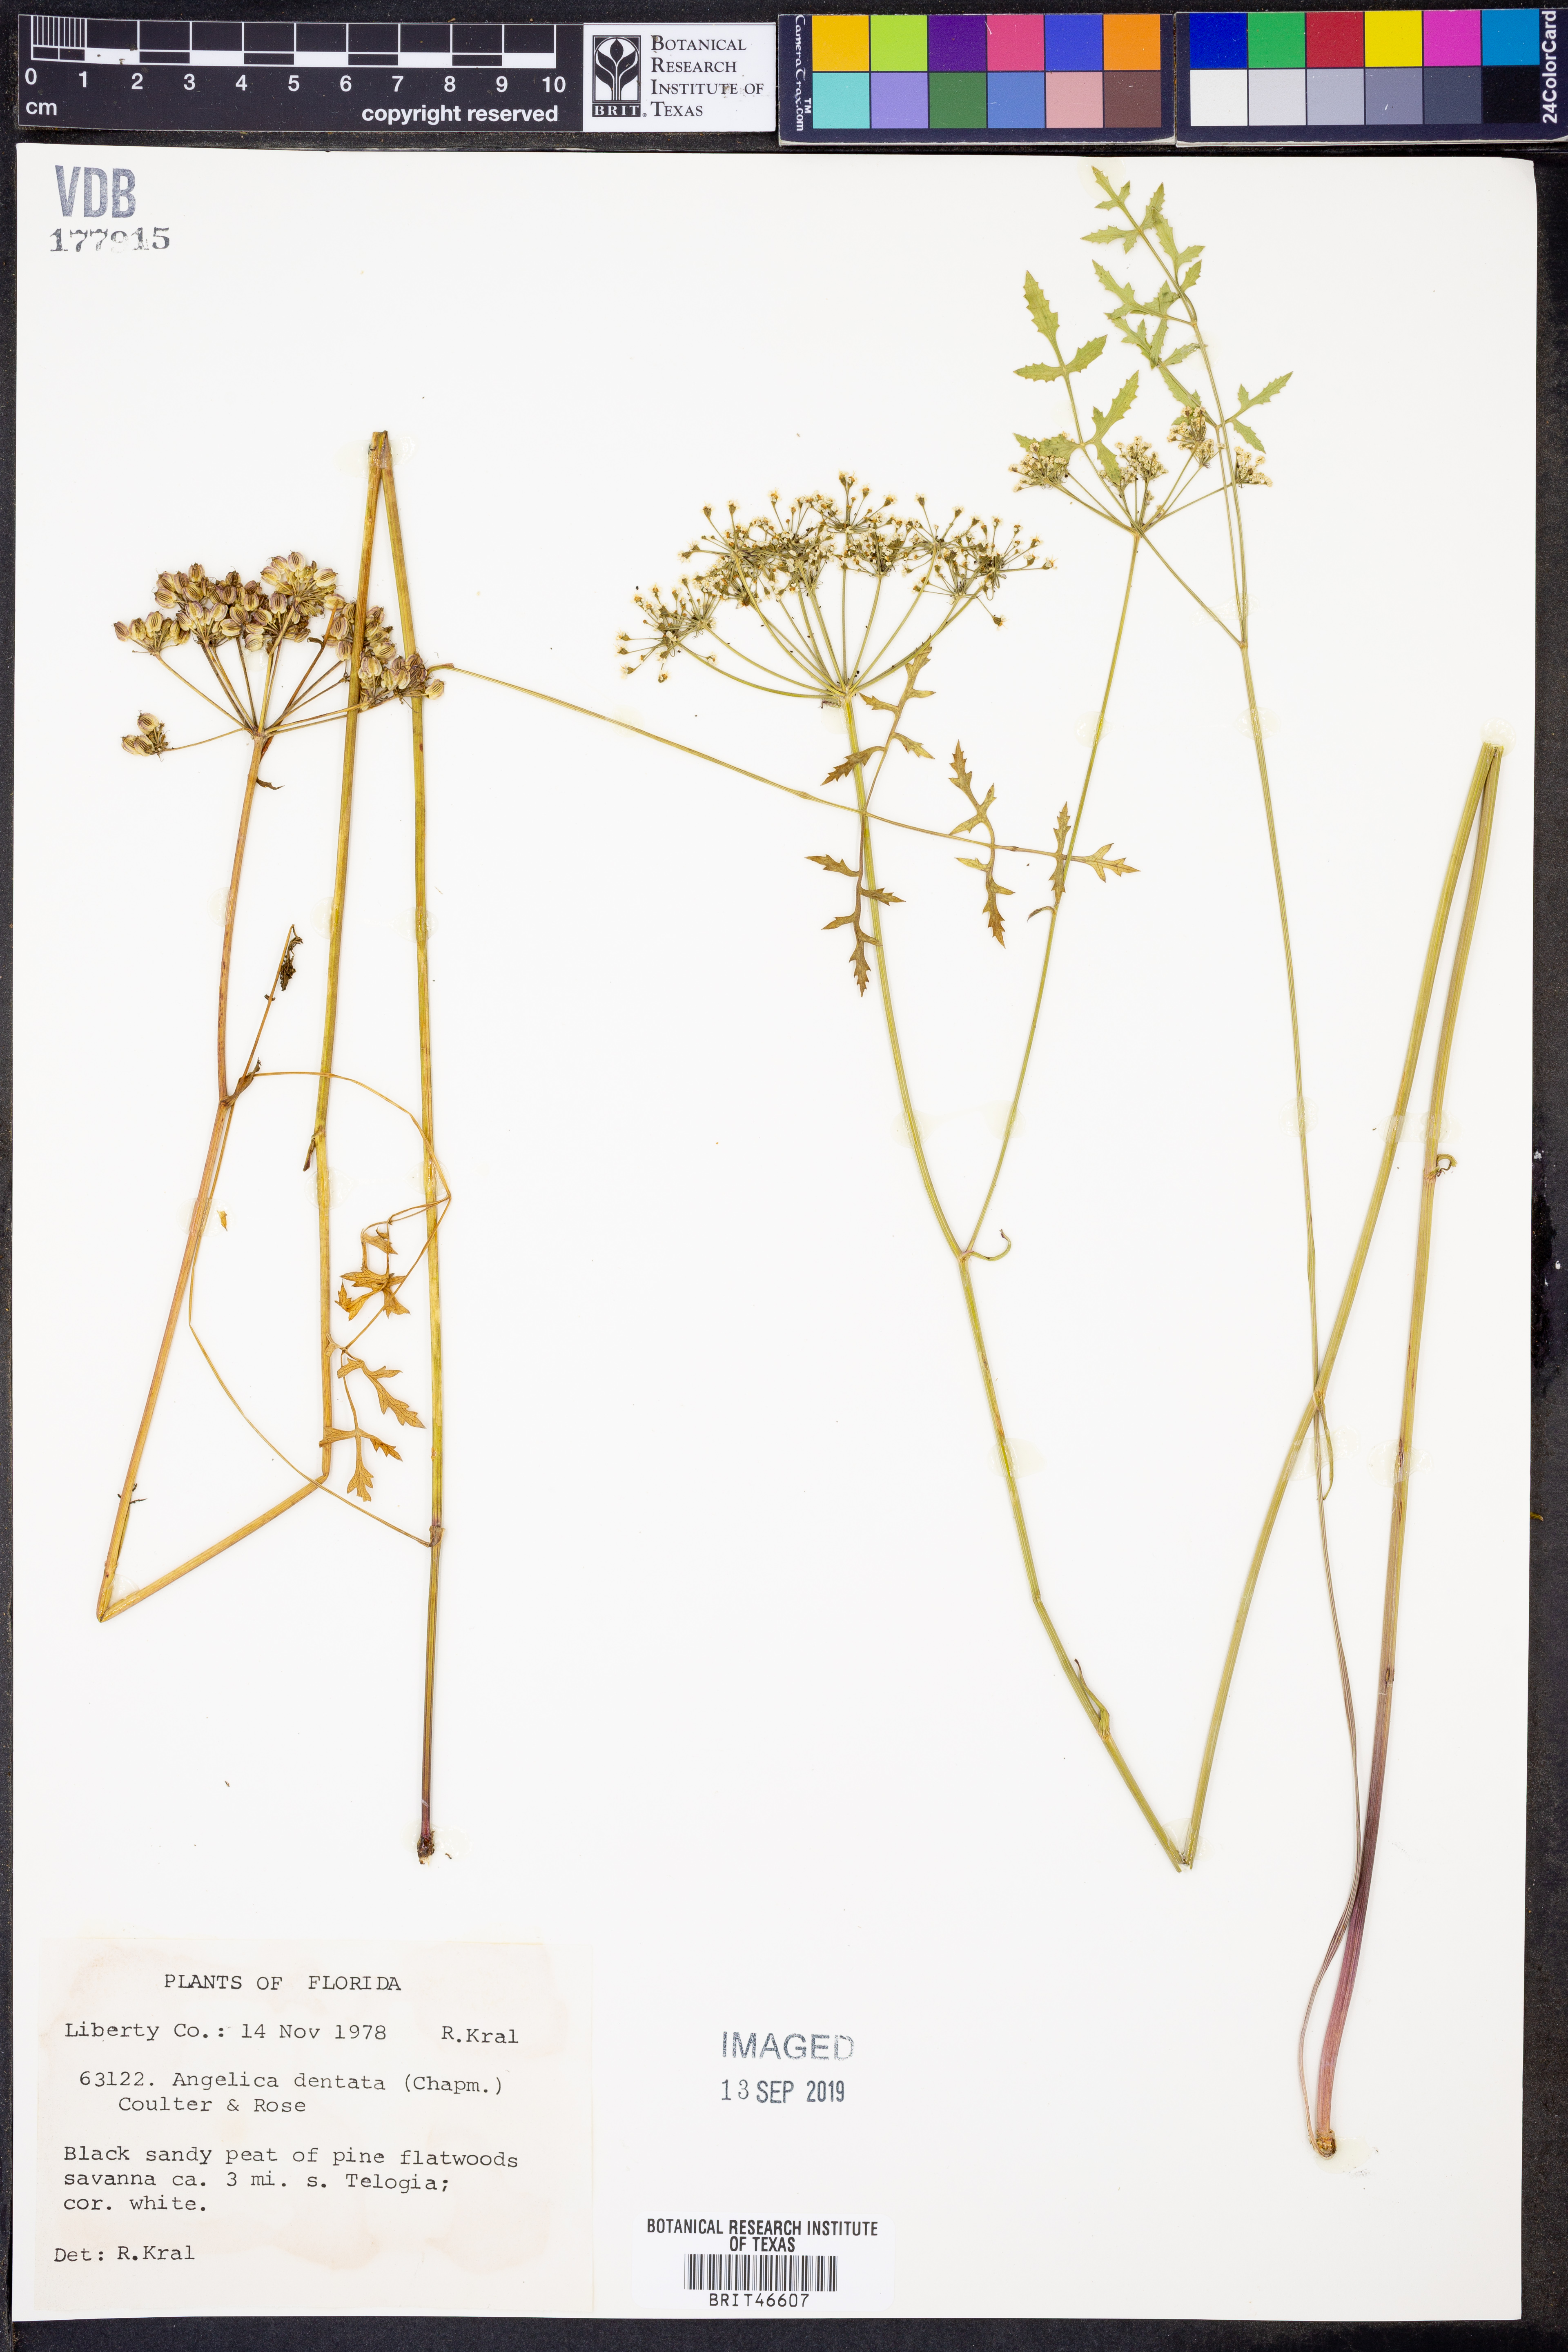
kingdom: Plantae
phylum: Tracheophyta
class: Magnoliopsida
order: Apiales
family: Apiaceae
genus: Angelica
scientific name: Angelica venenosa
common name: Hairy angelica
